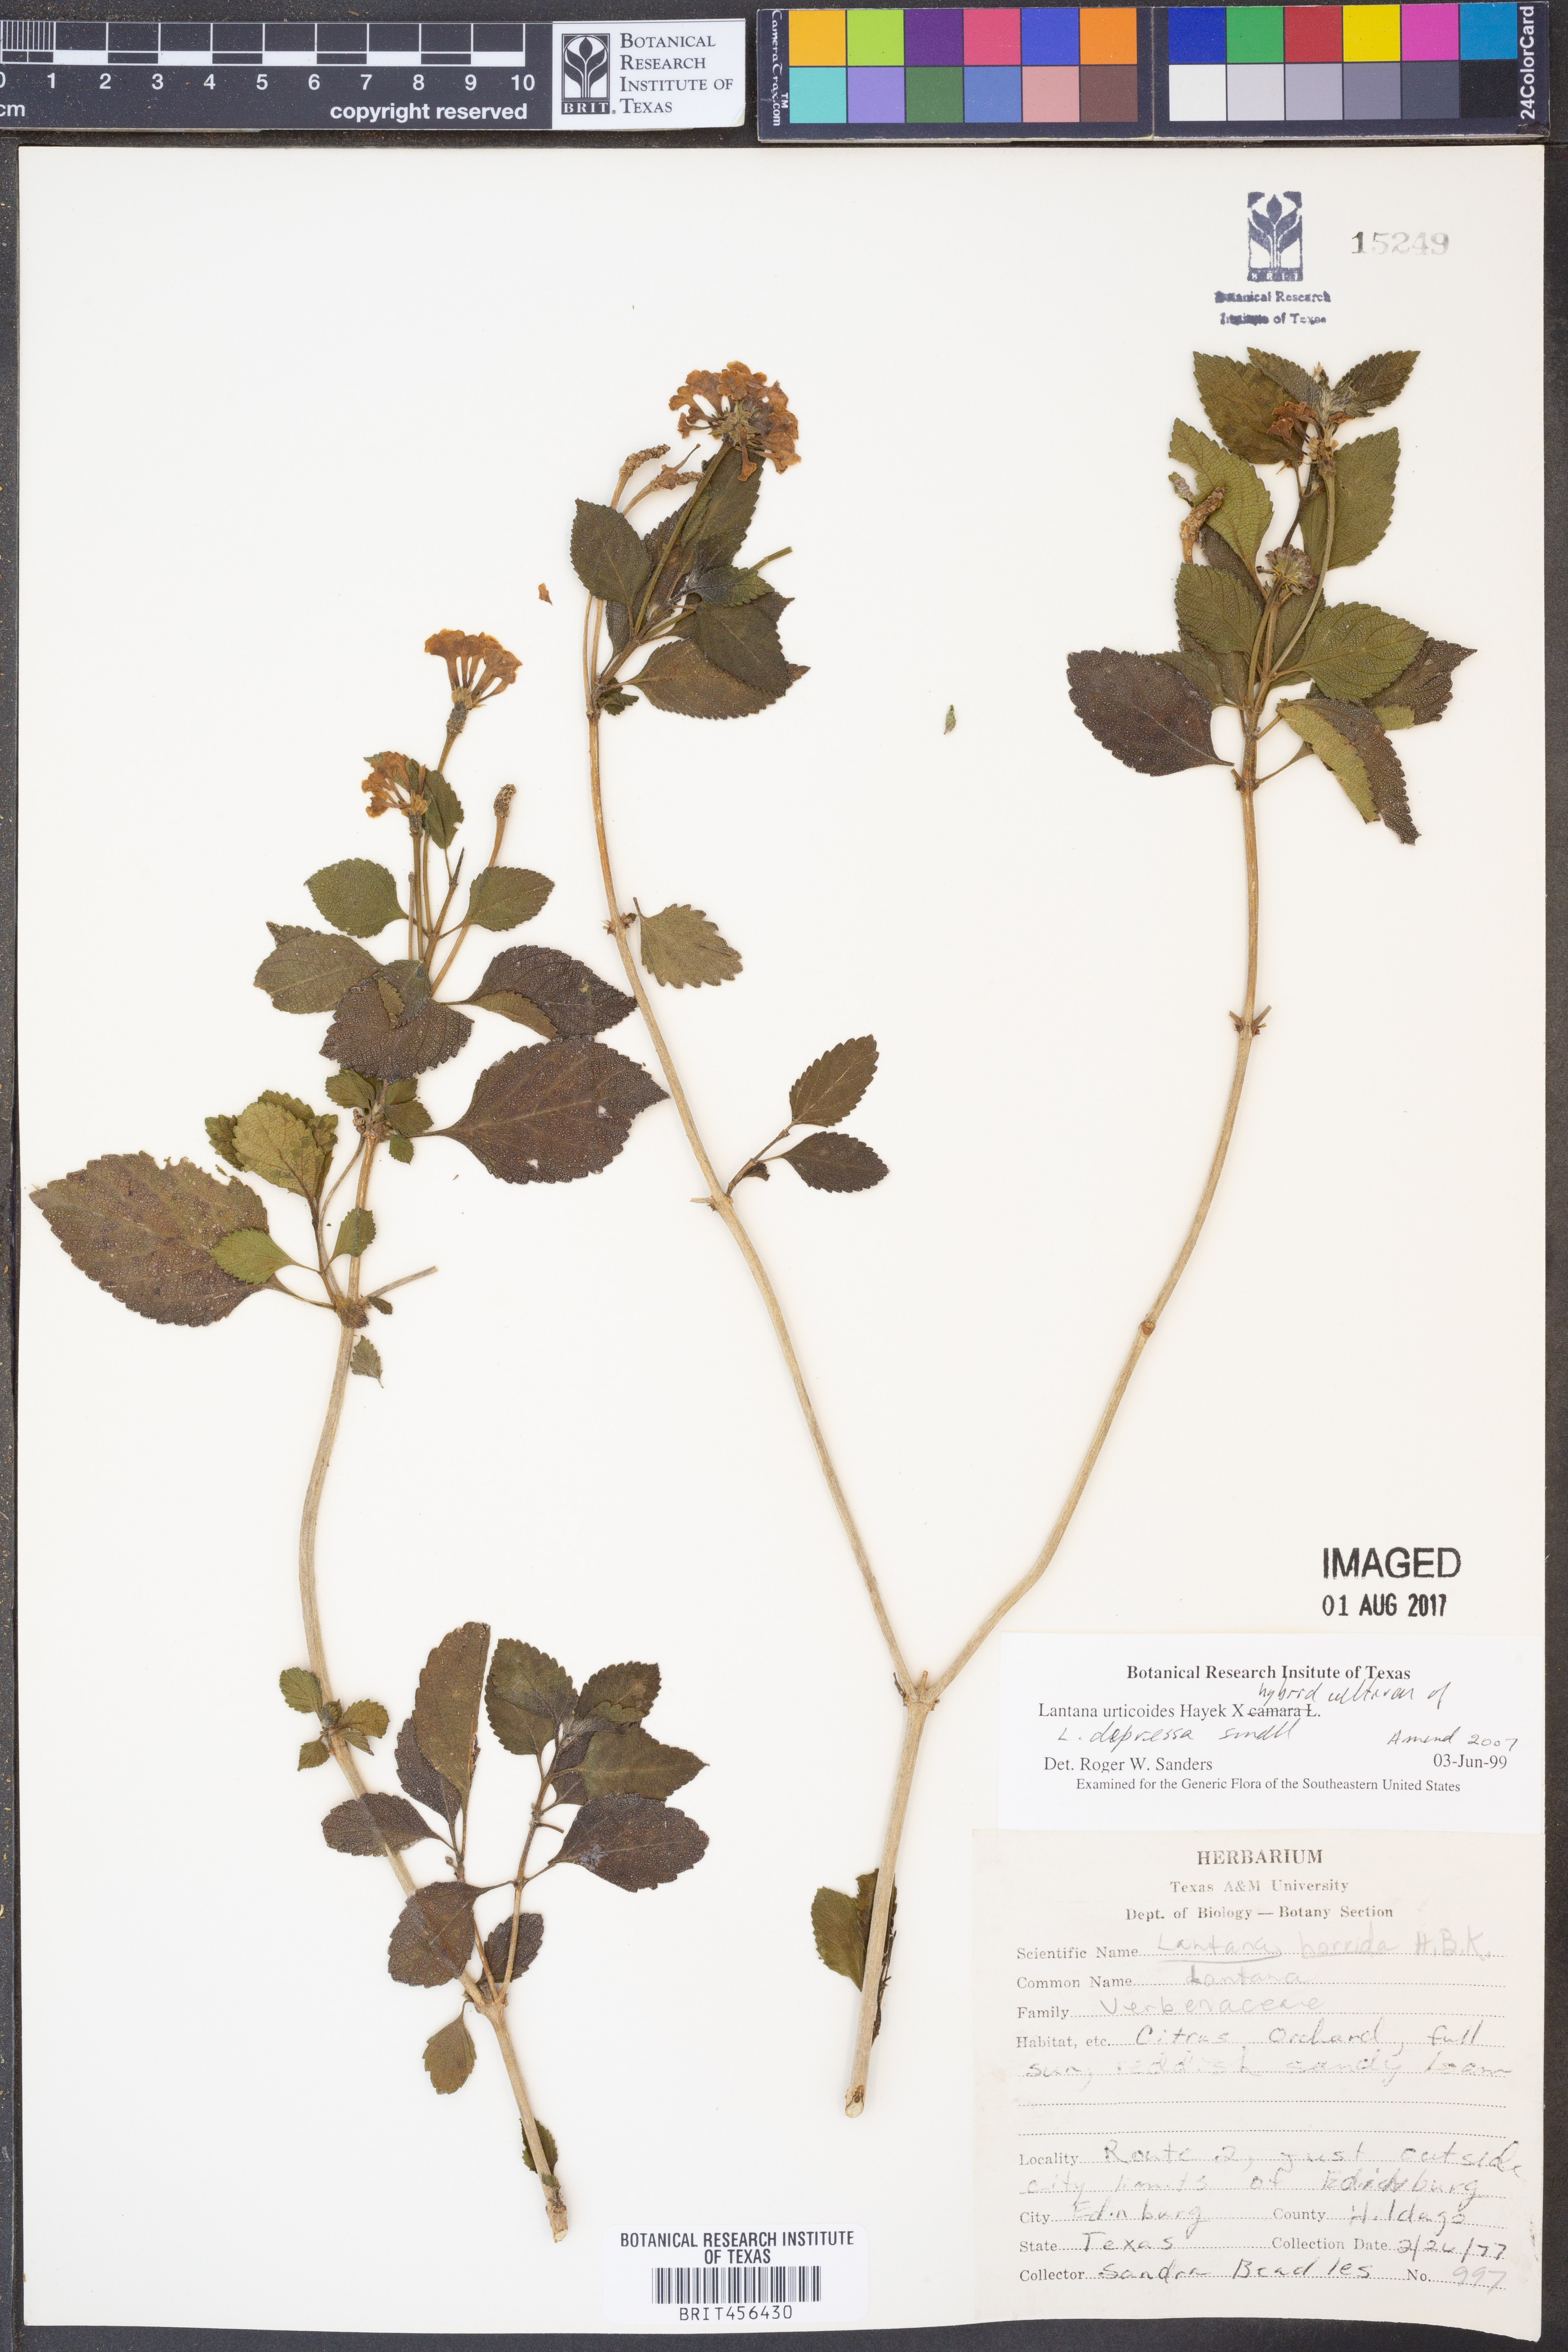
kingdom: Plantae
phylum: Tracheophyta
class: Magnoliopsida
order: Lamiales
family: Verbenaceae
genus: Lantana
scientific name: Lantana urticoides
